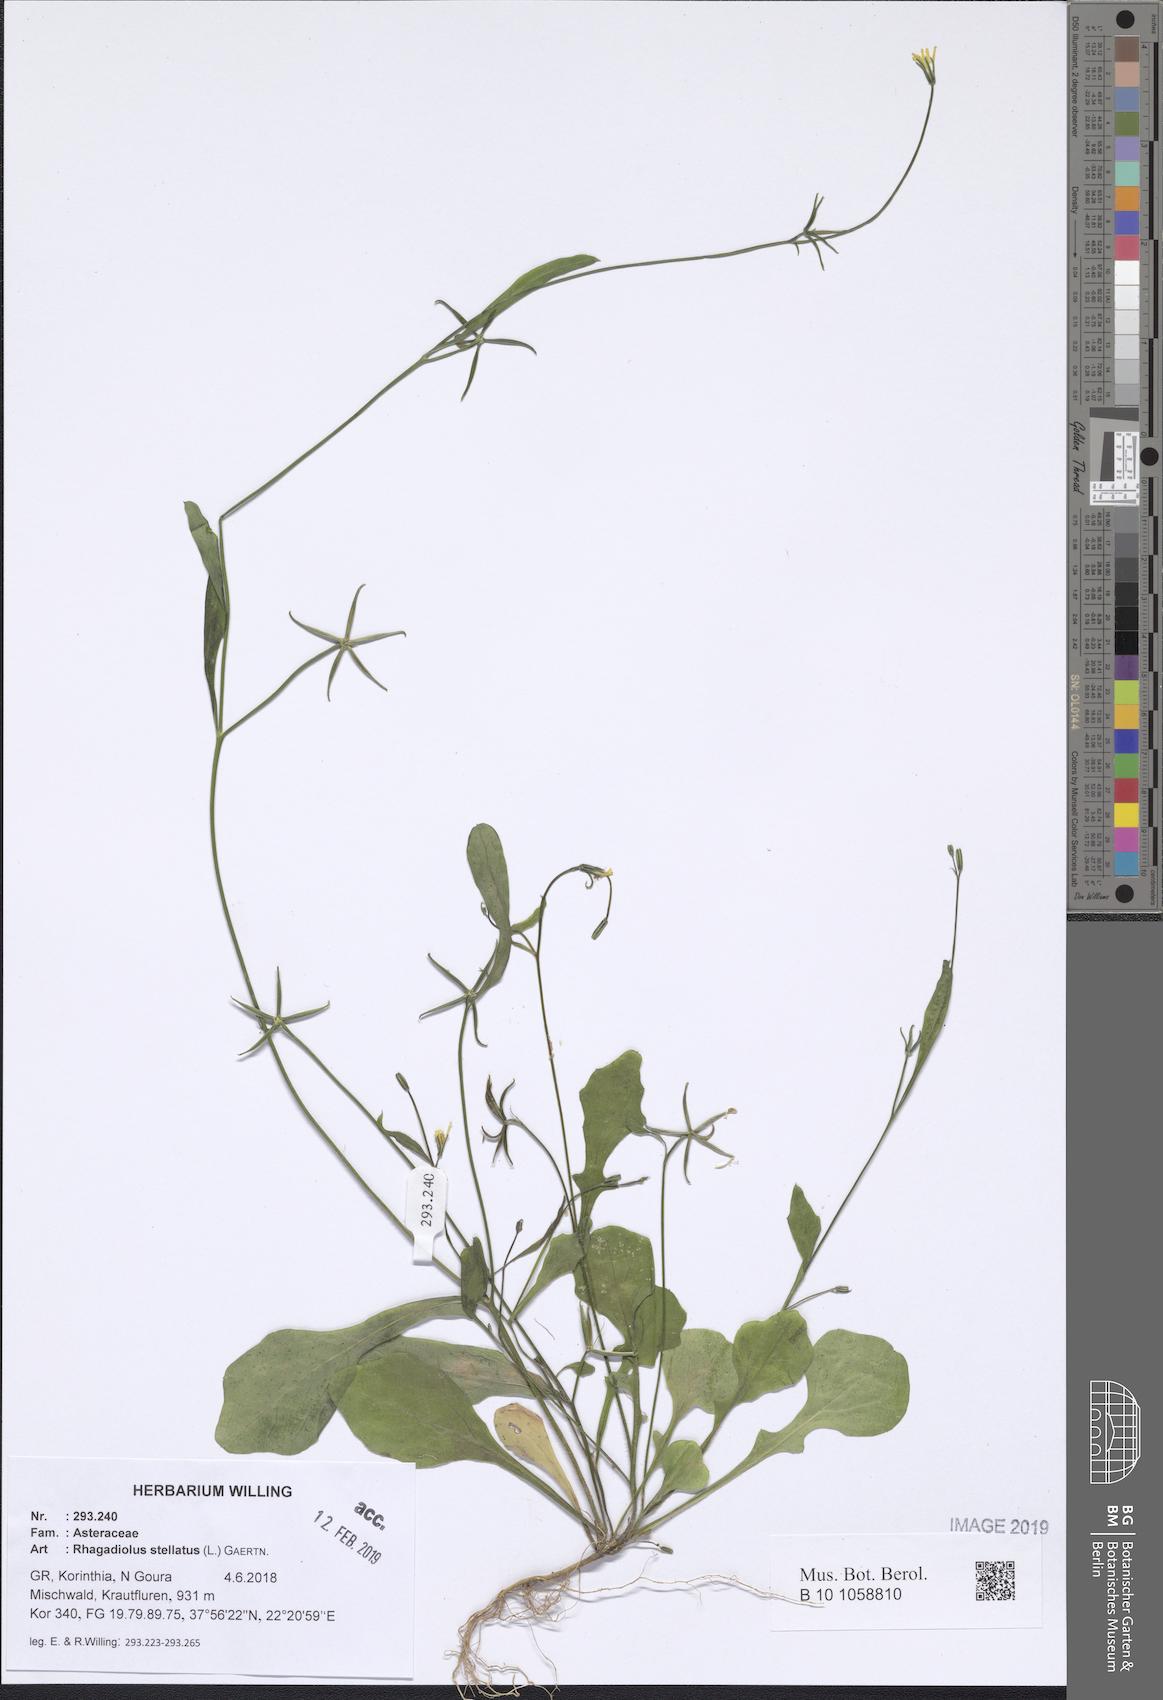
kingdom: Plantae
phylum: Tracheophyta
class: Magnoliopsida
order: Asterales
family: Asteraceae
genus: Rhagadiolus
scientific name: Rhagadiolus stellatus
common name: Star hawkbit
